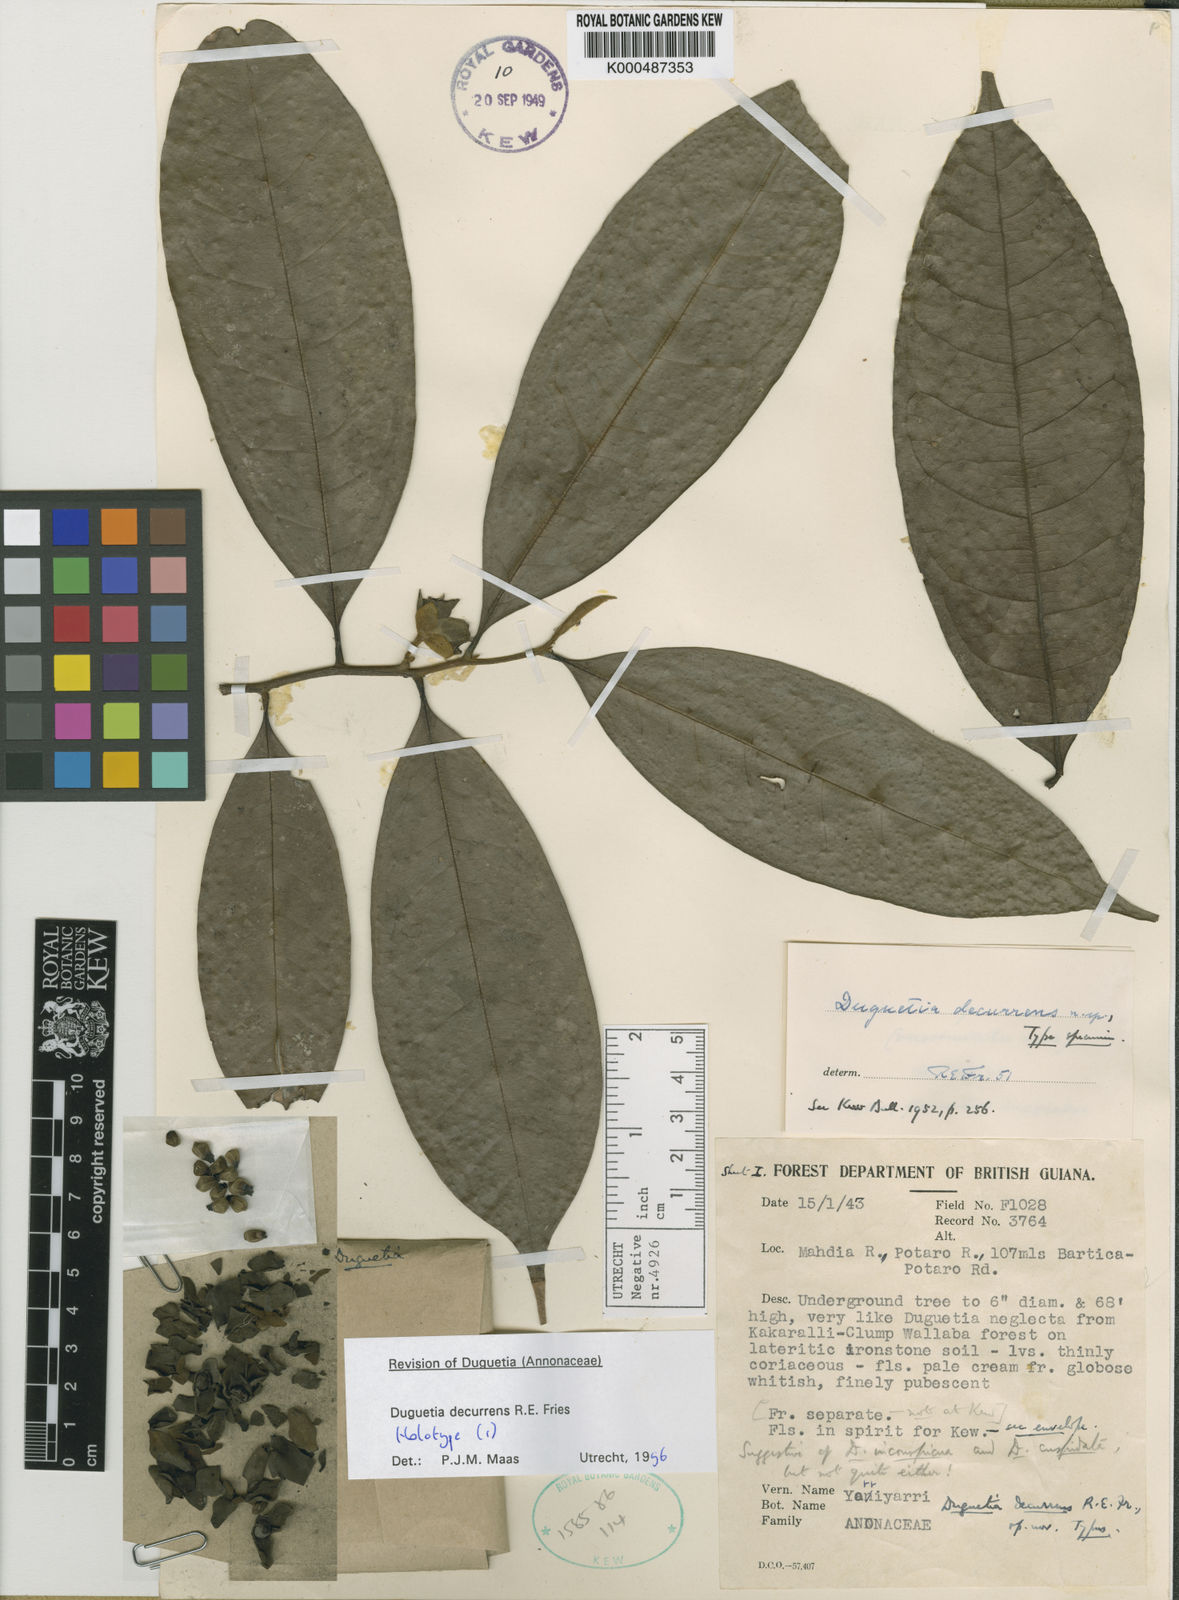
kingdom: Plantae
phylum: Tracheophyta
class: Magnoliopsida
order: Magnoliales
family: Annonaceae
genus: Duguetia
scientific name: Duguetia decurrens
